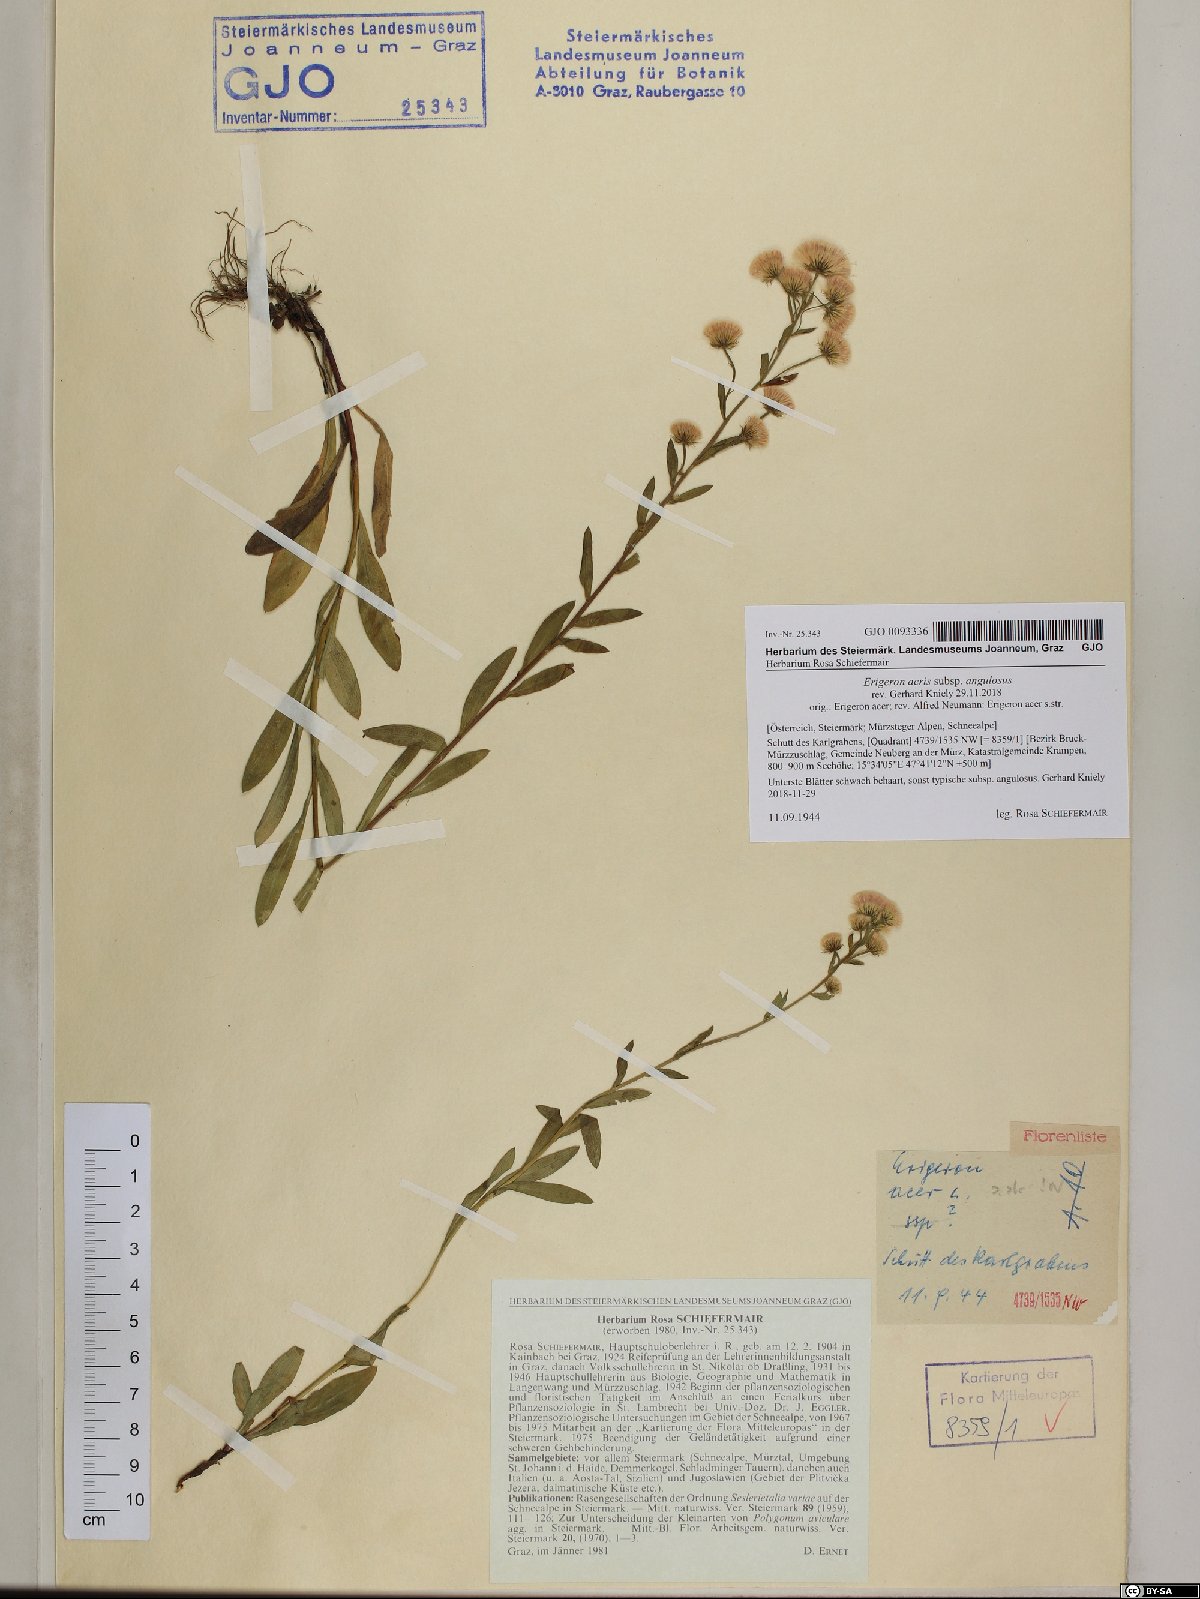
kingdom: Plantae
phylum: Tracheophyta
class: Magnoliopsida
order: Asterales
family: Asteraceae
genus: Erigeron
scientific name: Erigeron angulosus
